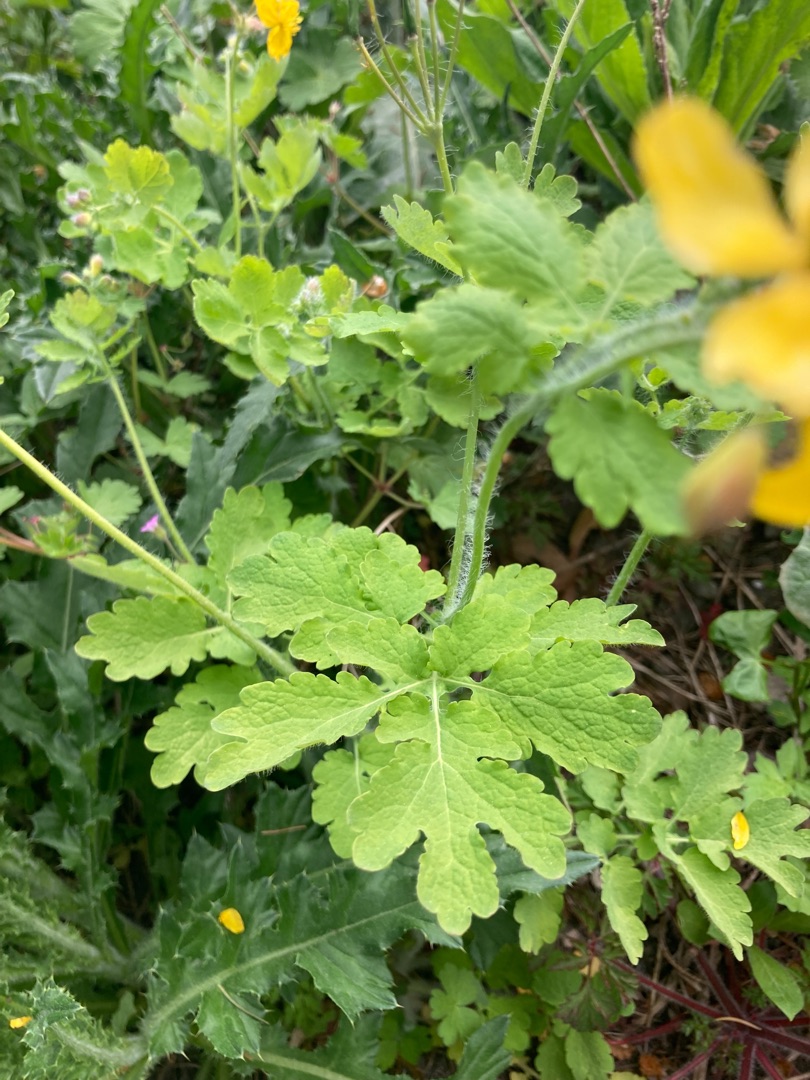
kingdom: Plantae
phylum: Tracheophyta
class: Magnoliopsida
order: Ranunculales
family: Papaveraceae
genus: Chelidonium
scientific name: Chelidonium majus
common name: Svaleurt
